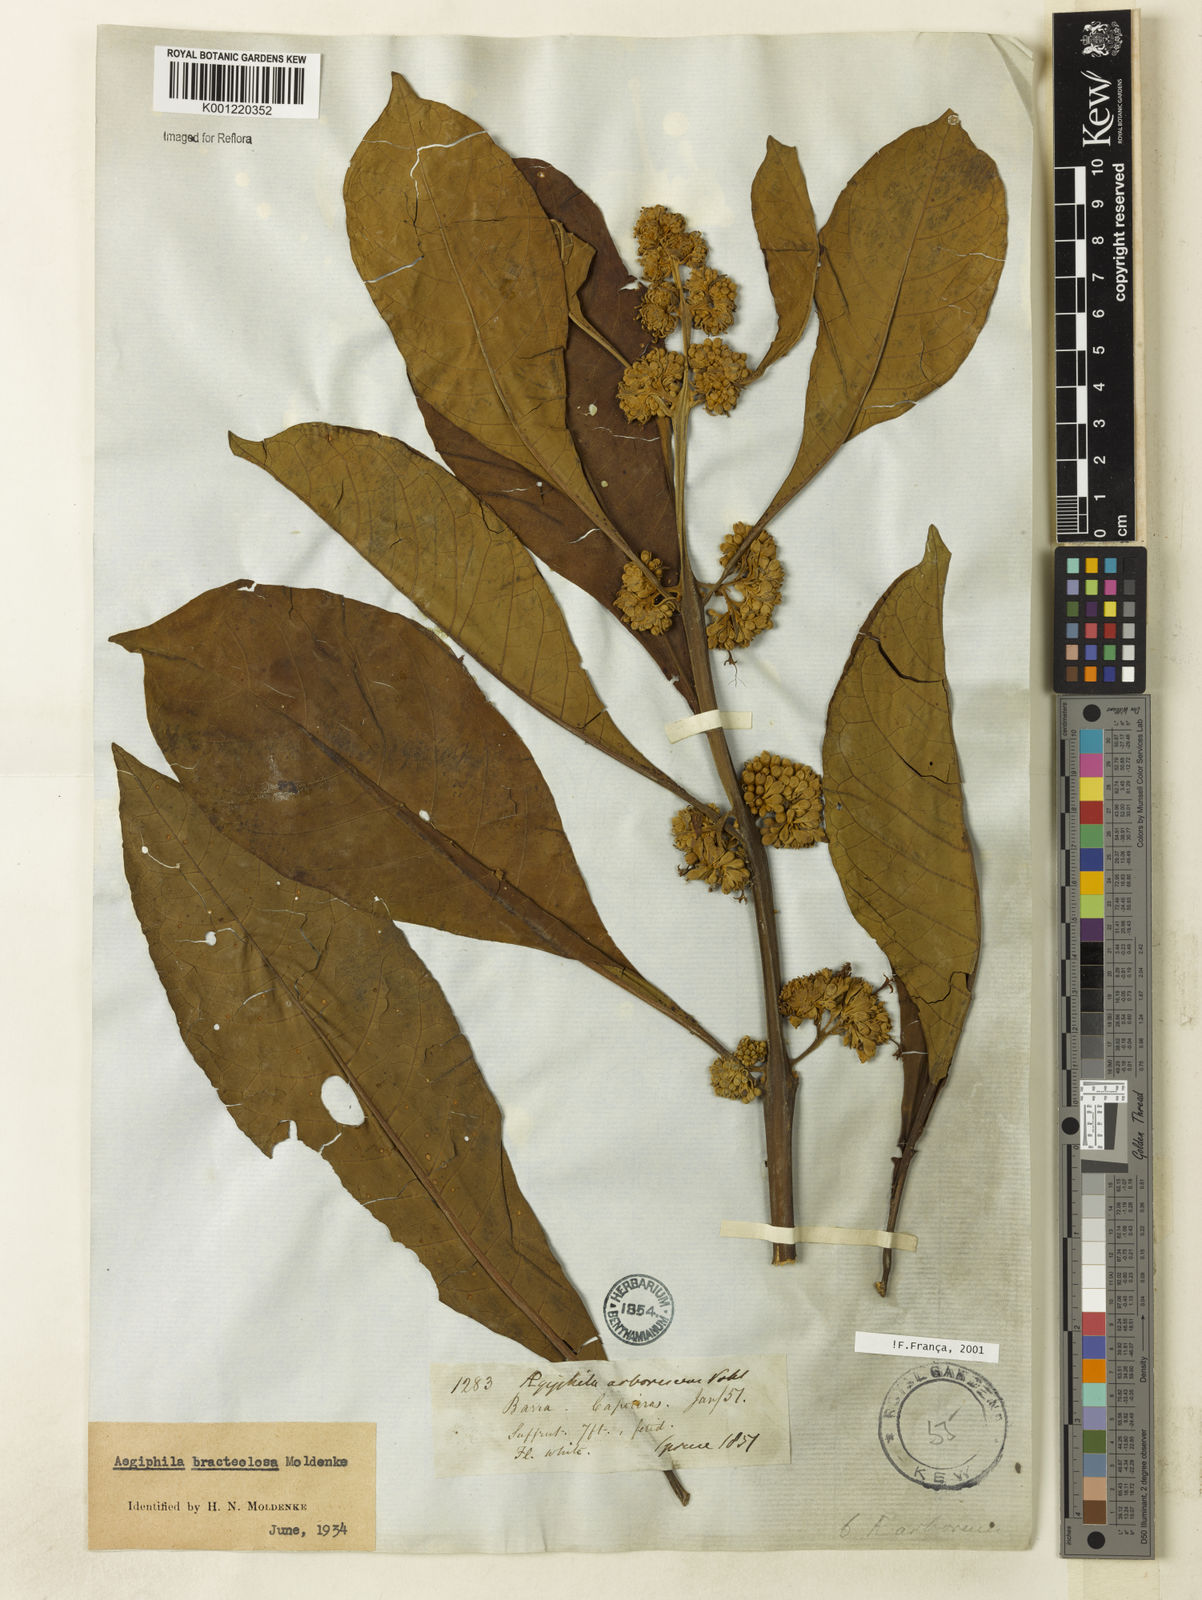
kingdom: Plantae
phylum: Tracheophyta
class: Magnoliopsida
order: Lamiales
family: Lamiaceae
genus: Aegiphila
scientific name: Aegiphila bracteolosa
